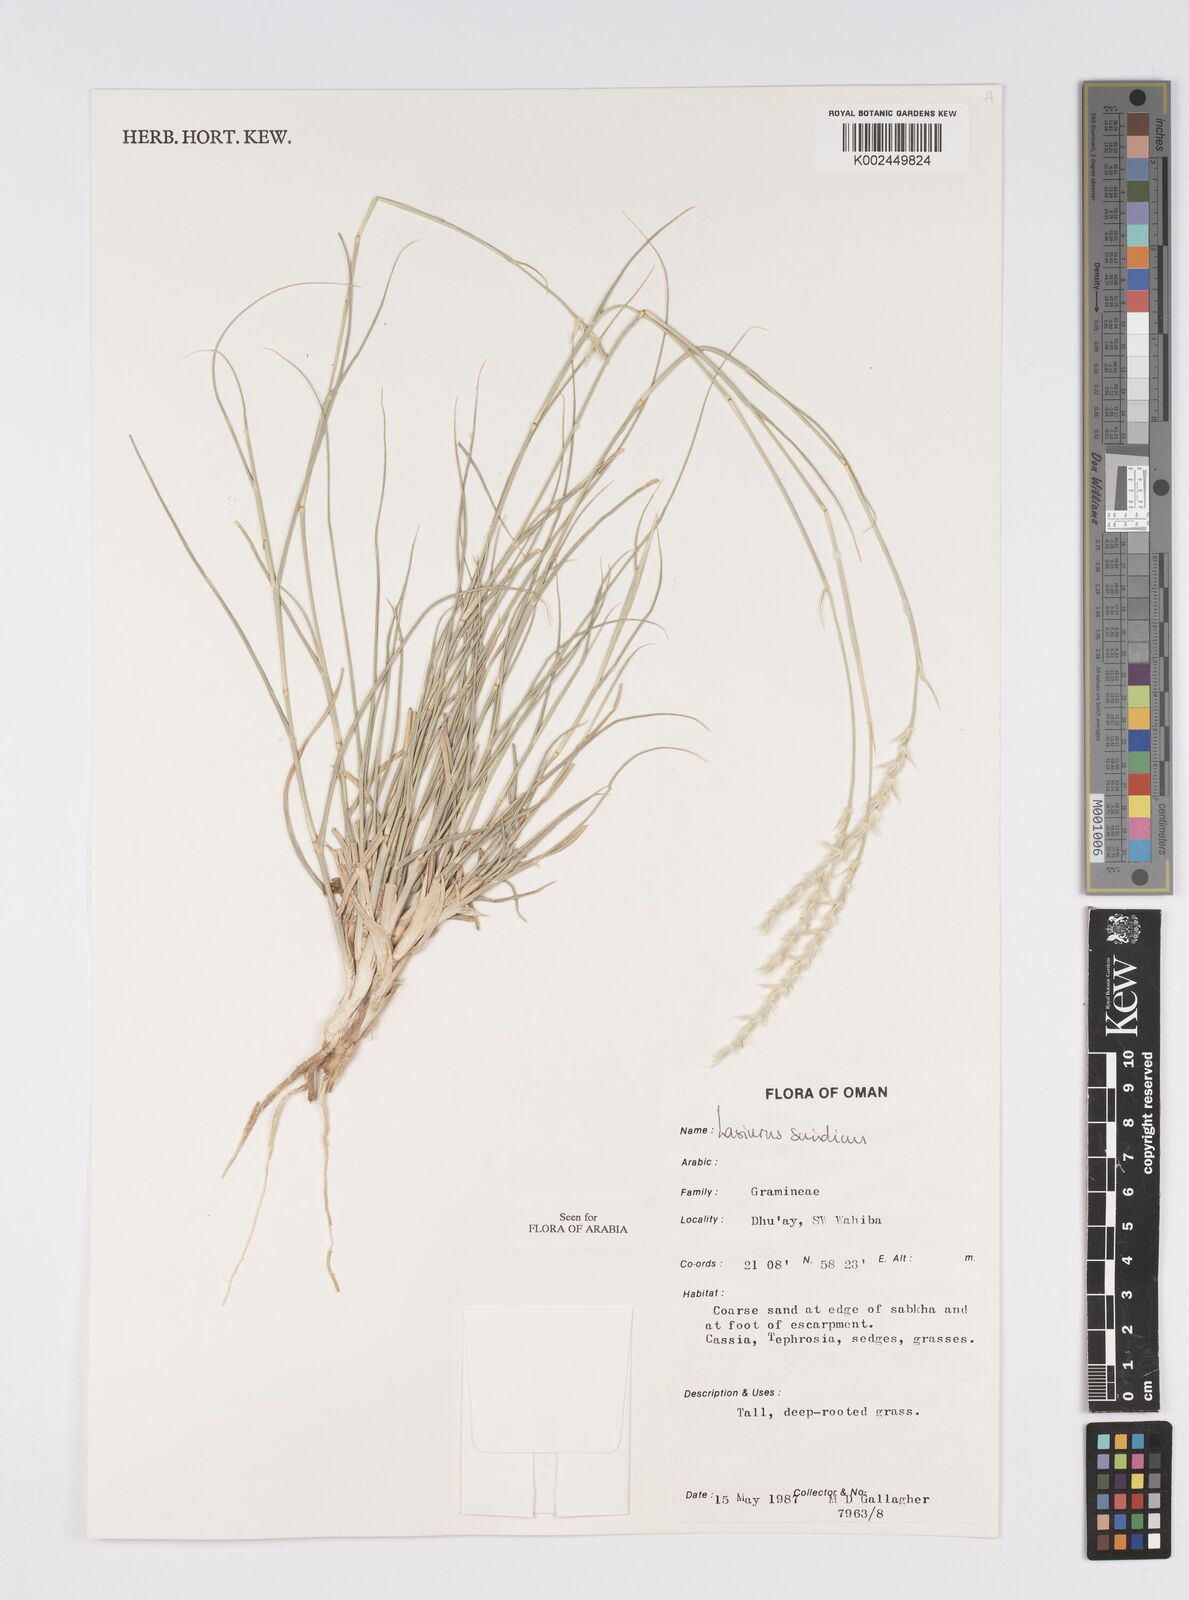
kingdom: Plantae
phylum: Tracheophyta
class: Liliopsida
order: Poales
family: Poaceae
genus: Lasiurus
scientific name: Lasiurus scindicus
